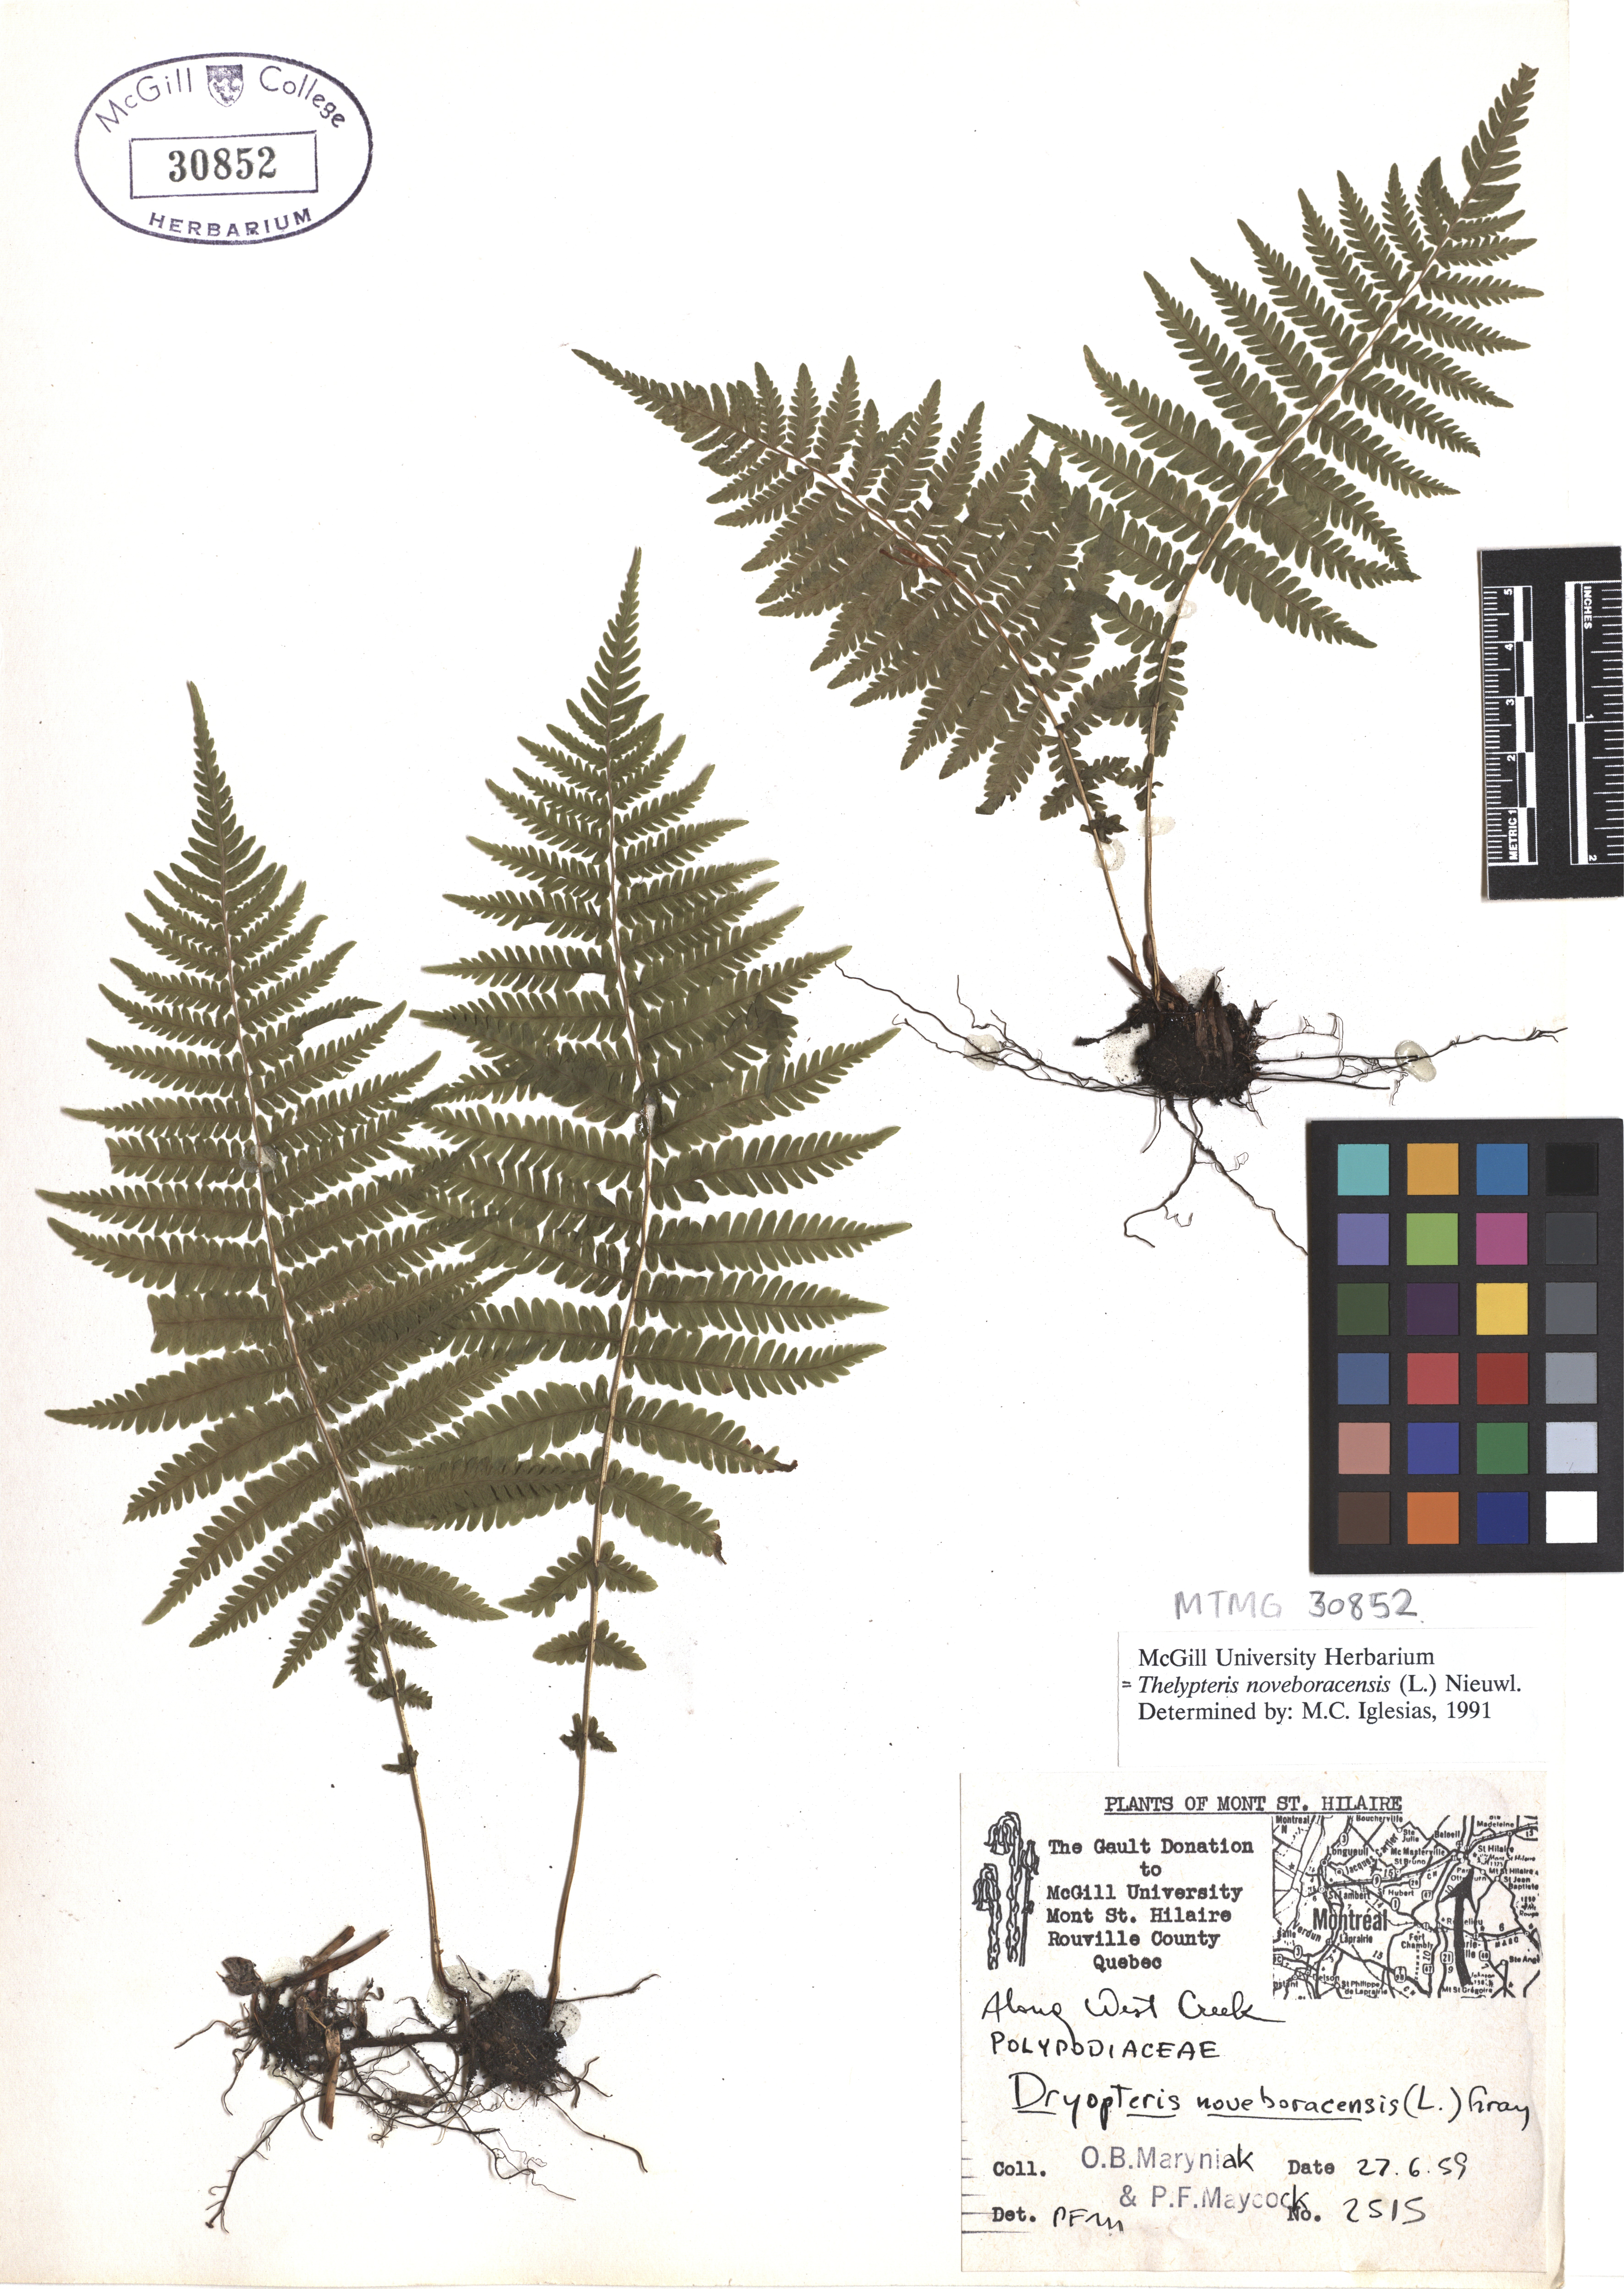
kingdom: Plantae
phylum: Tracheophyta
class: Polypodiopsida
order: Polypodiales
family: Thelypteridaceae
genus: Amauropelta
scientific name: Amauropelta noveboracensis
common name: New york fern
